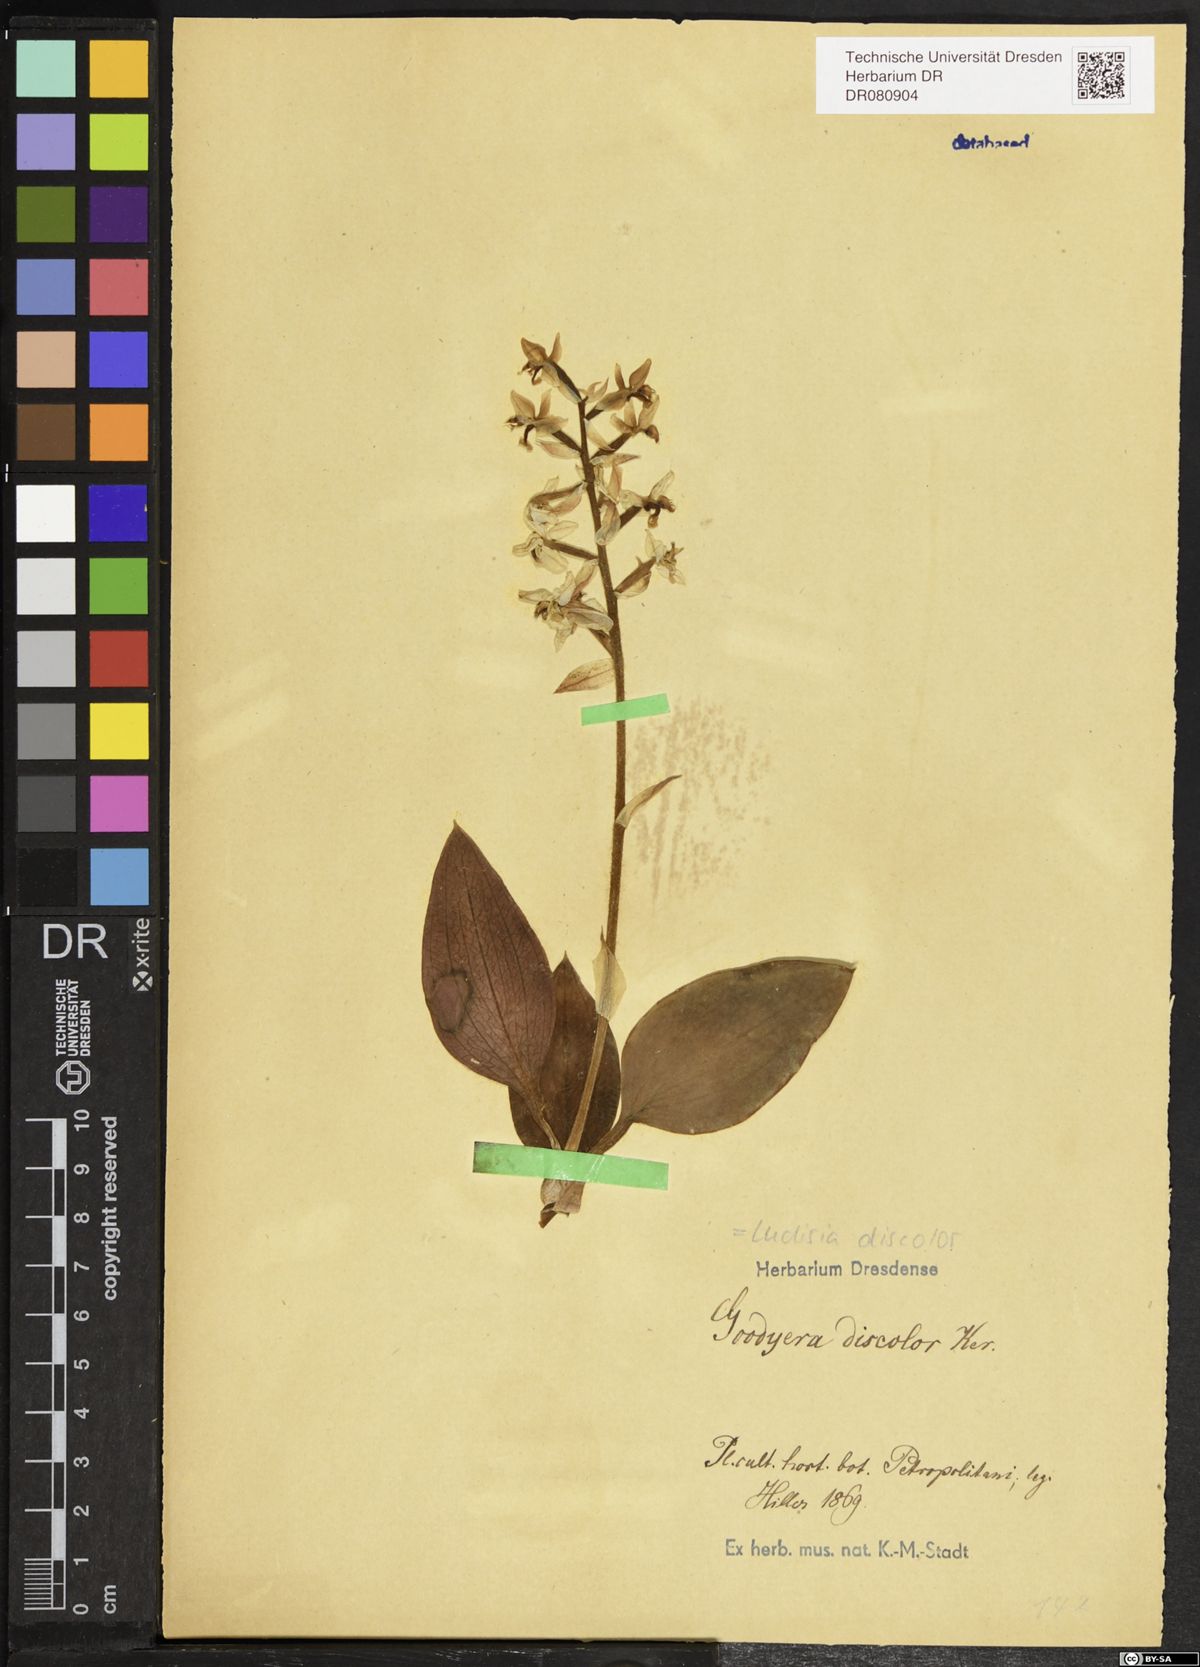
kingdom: Plantae
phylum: Tracheophyta
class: Liliopsida
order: Asparagales
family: Orchidaceae
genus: Ludisia
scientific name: Ludisia discolor
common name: Jewel orchid
